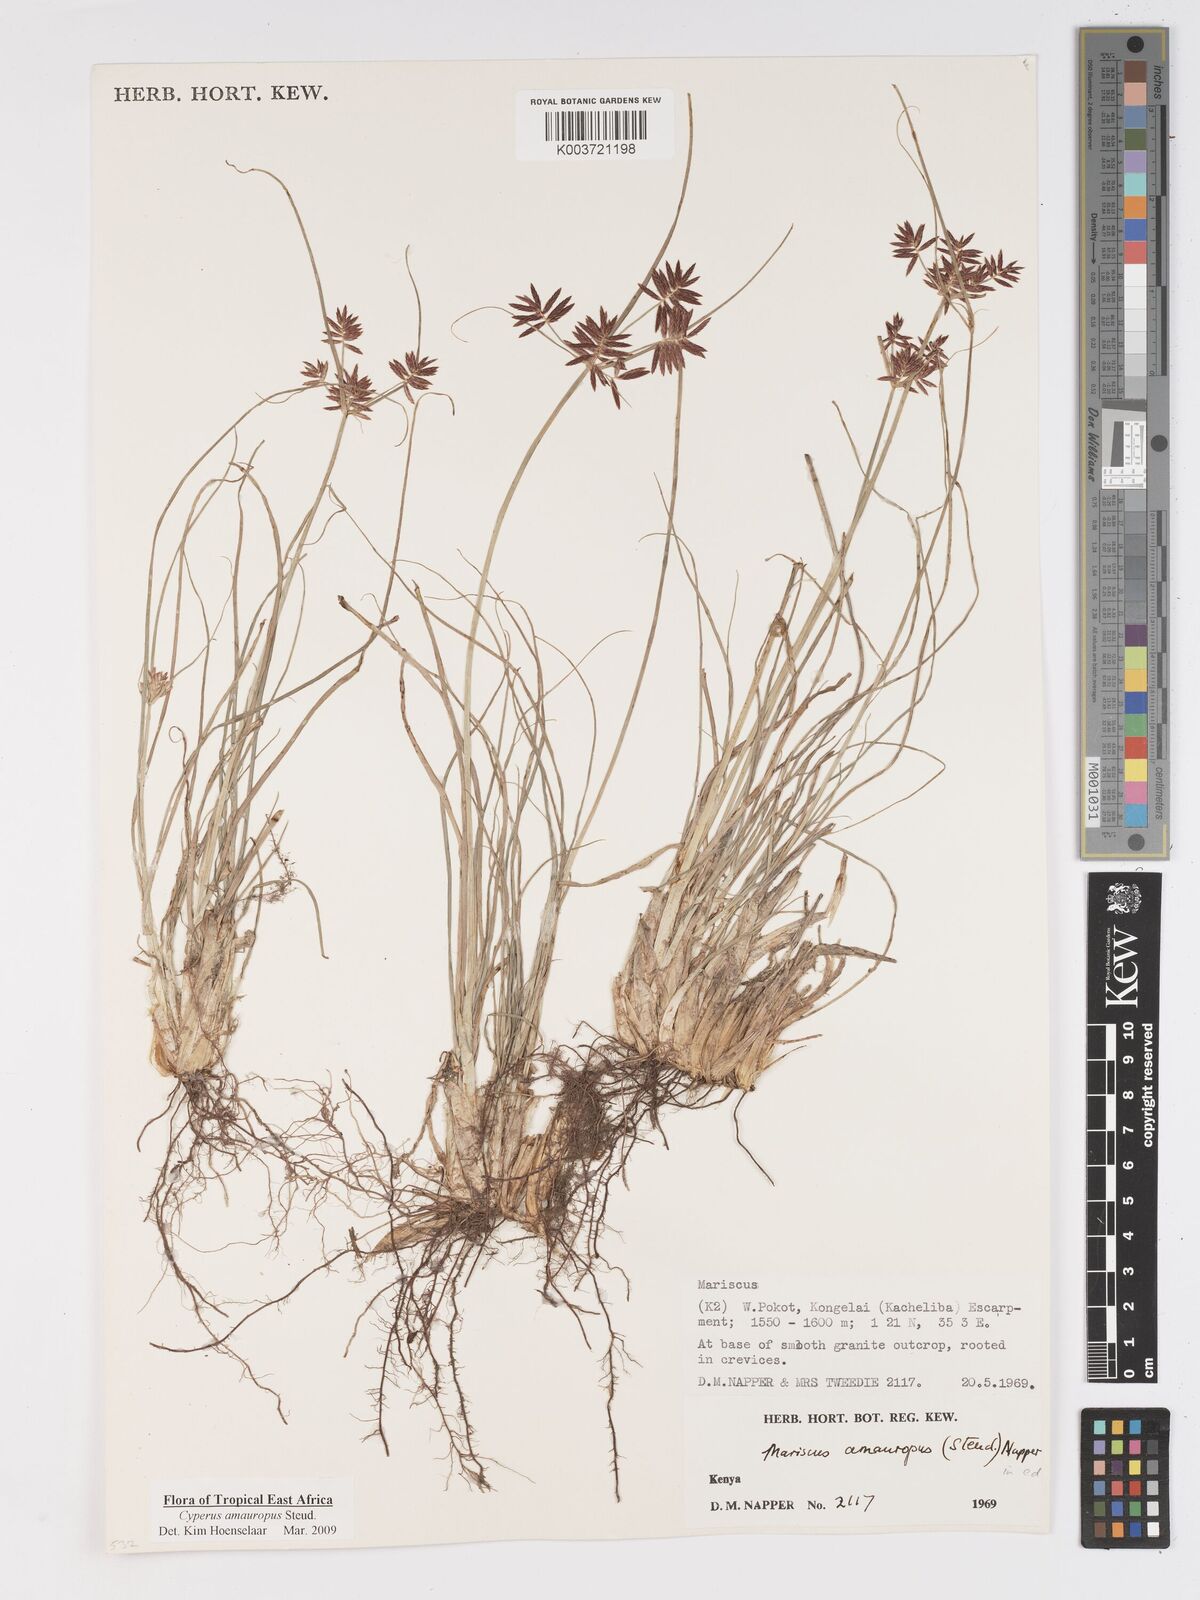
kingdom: Plantae
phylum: Tracheophyta
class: Liliopsida
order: Poales
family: Cyperaceae
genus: Cyperus
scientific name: Cyperus amauropus
